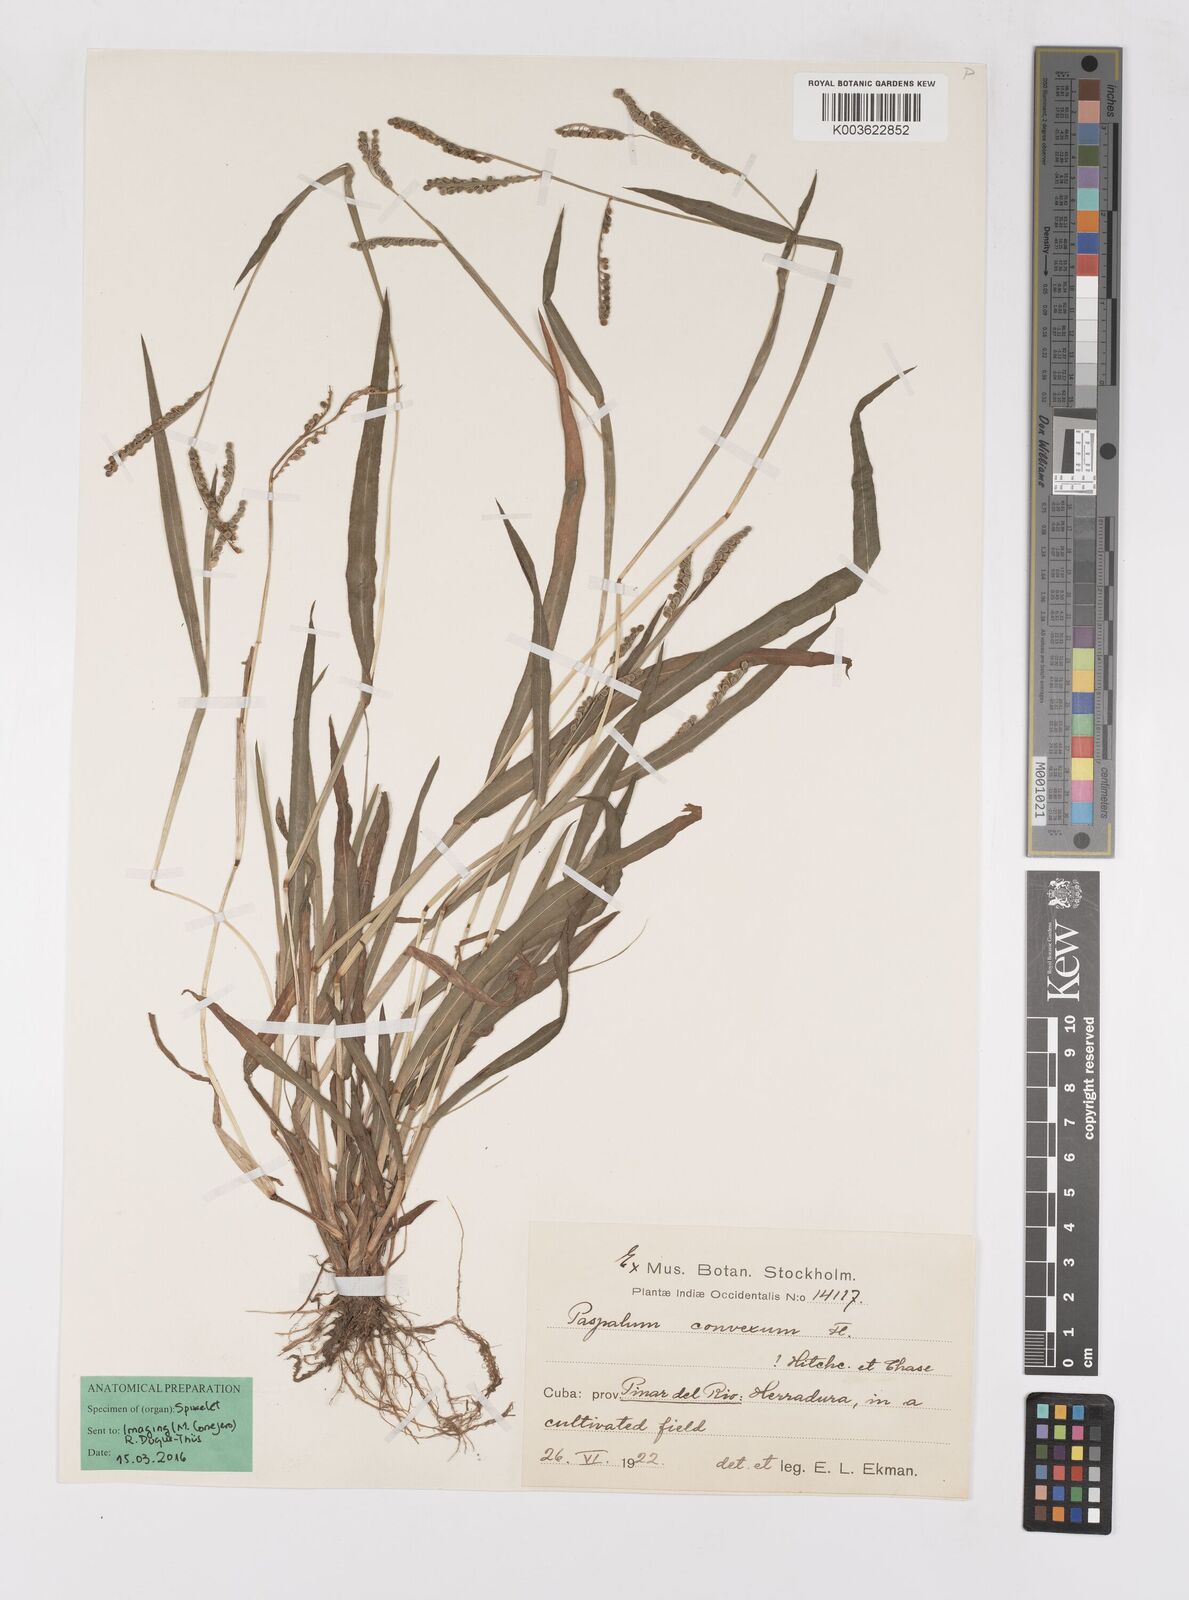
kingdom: Plantae
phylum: Tracheophyta
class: Liliopsida
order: Poales
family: Poaceae
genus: Paspalum
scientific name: Paspalum glabrinode
